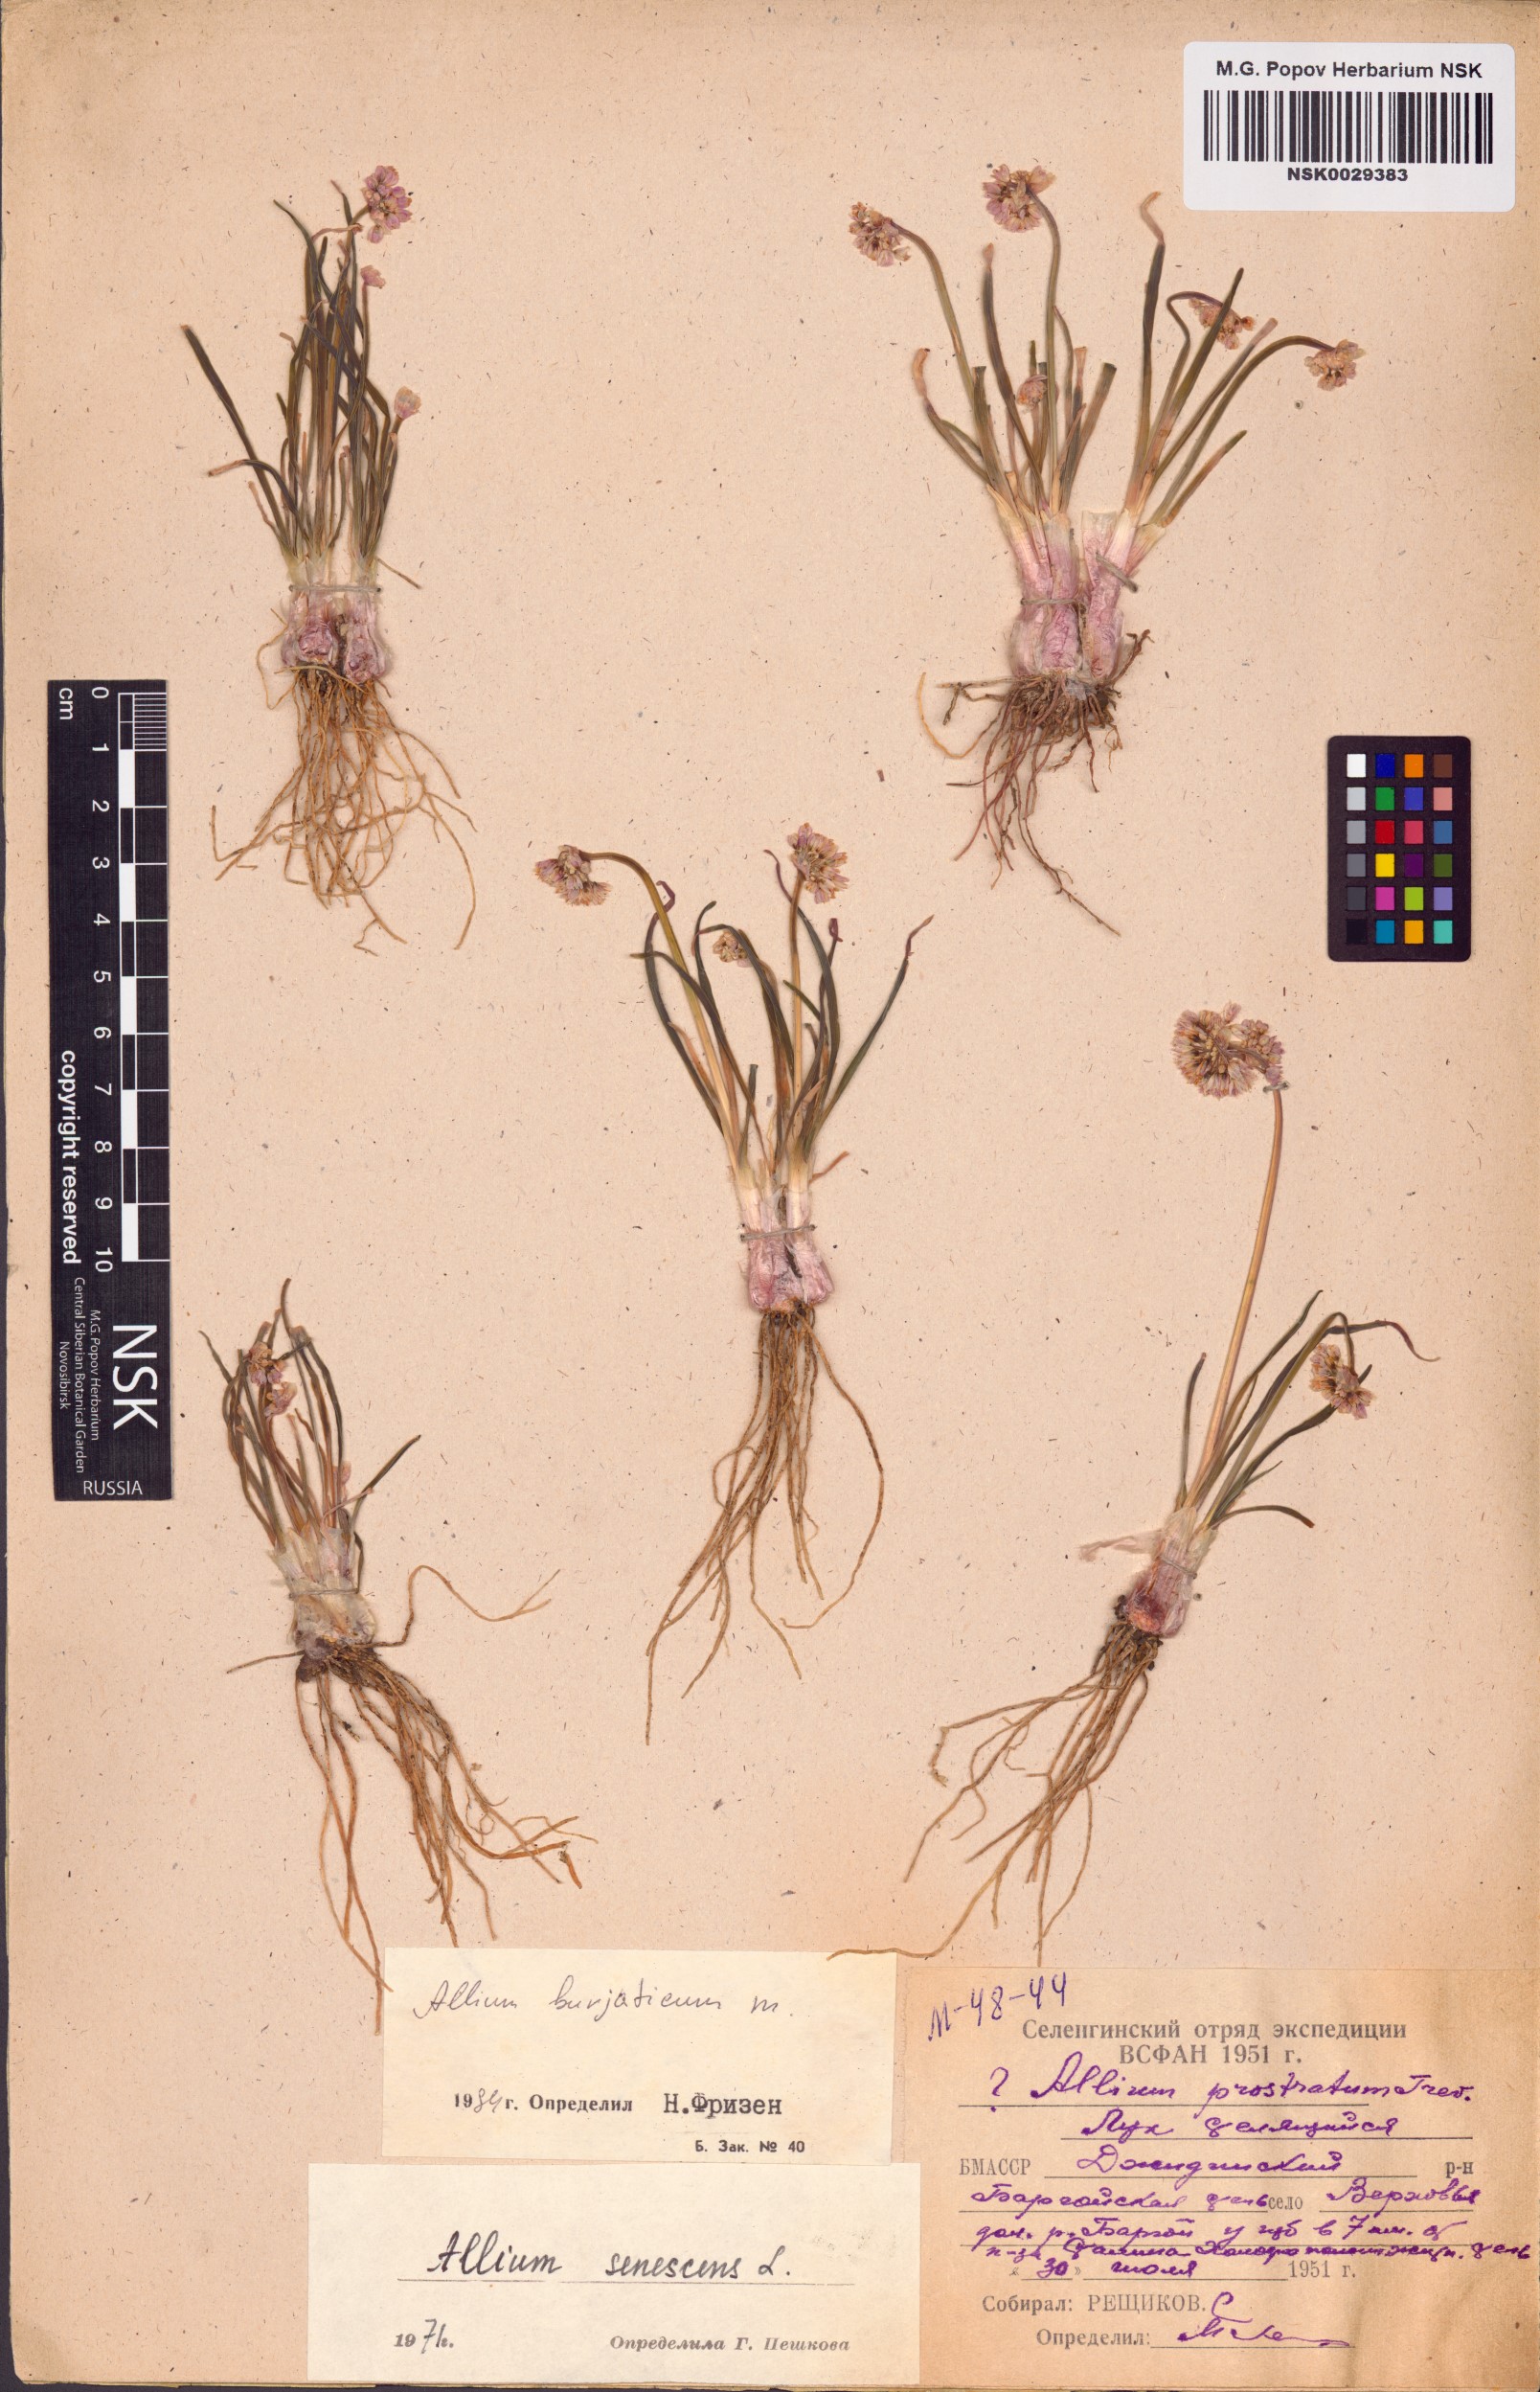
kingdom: Plantae
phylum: Tracheophyta
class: Liliopsida
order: Asparagales
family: Amaryllidaceae
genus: Allium
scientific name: Allium burjaticum
